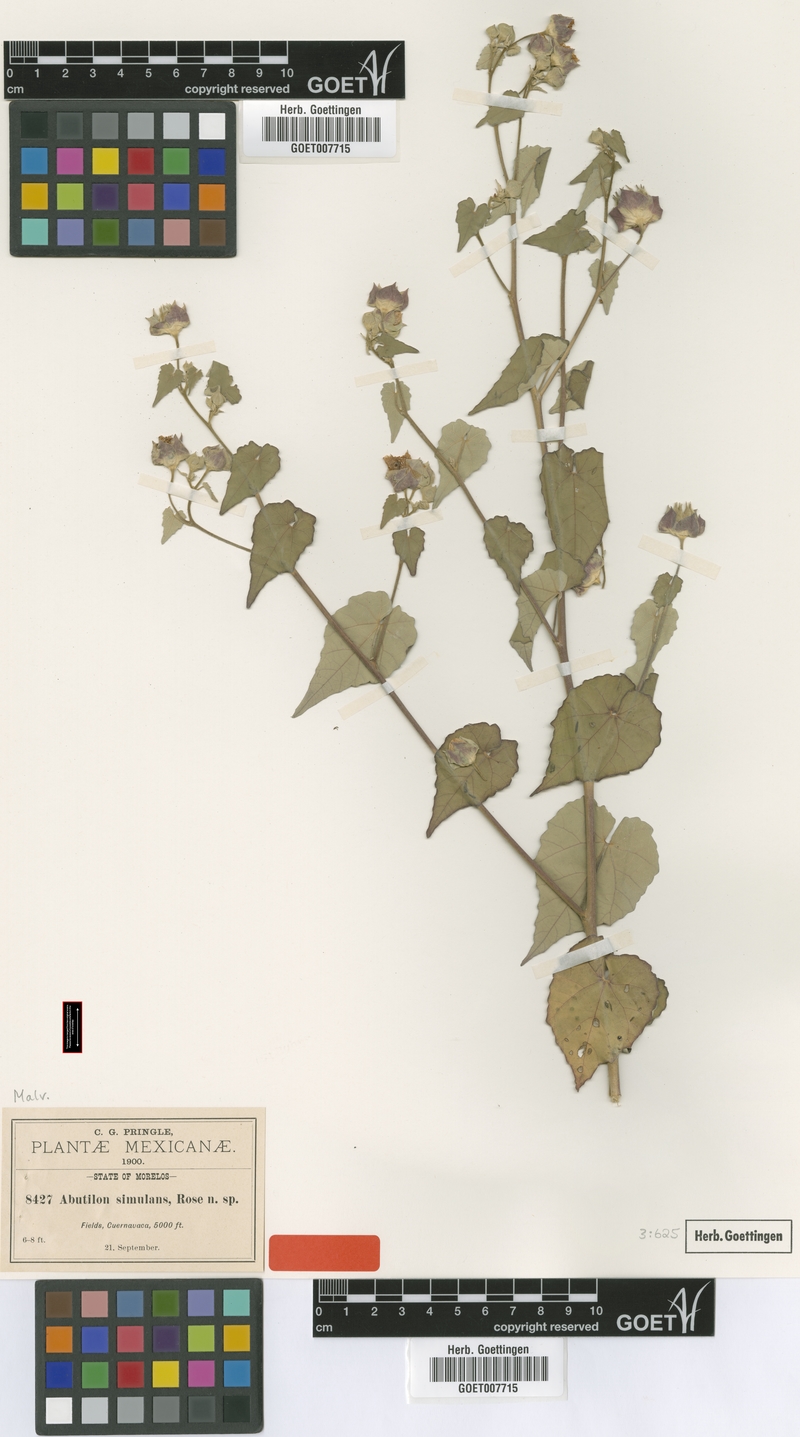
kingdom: Plantae
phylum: Tracheophyta
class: Magnoliopsida
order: Malvales
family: Malvaceae
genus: Abutilon
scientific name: Abutilon simulans
